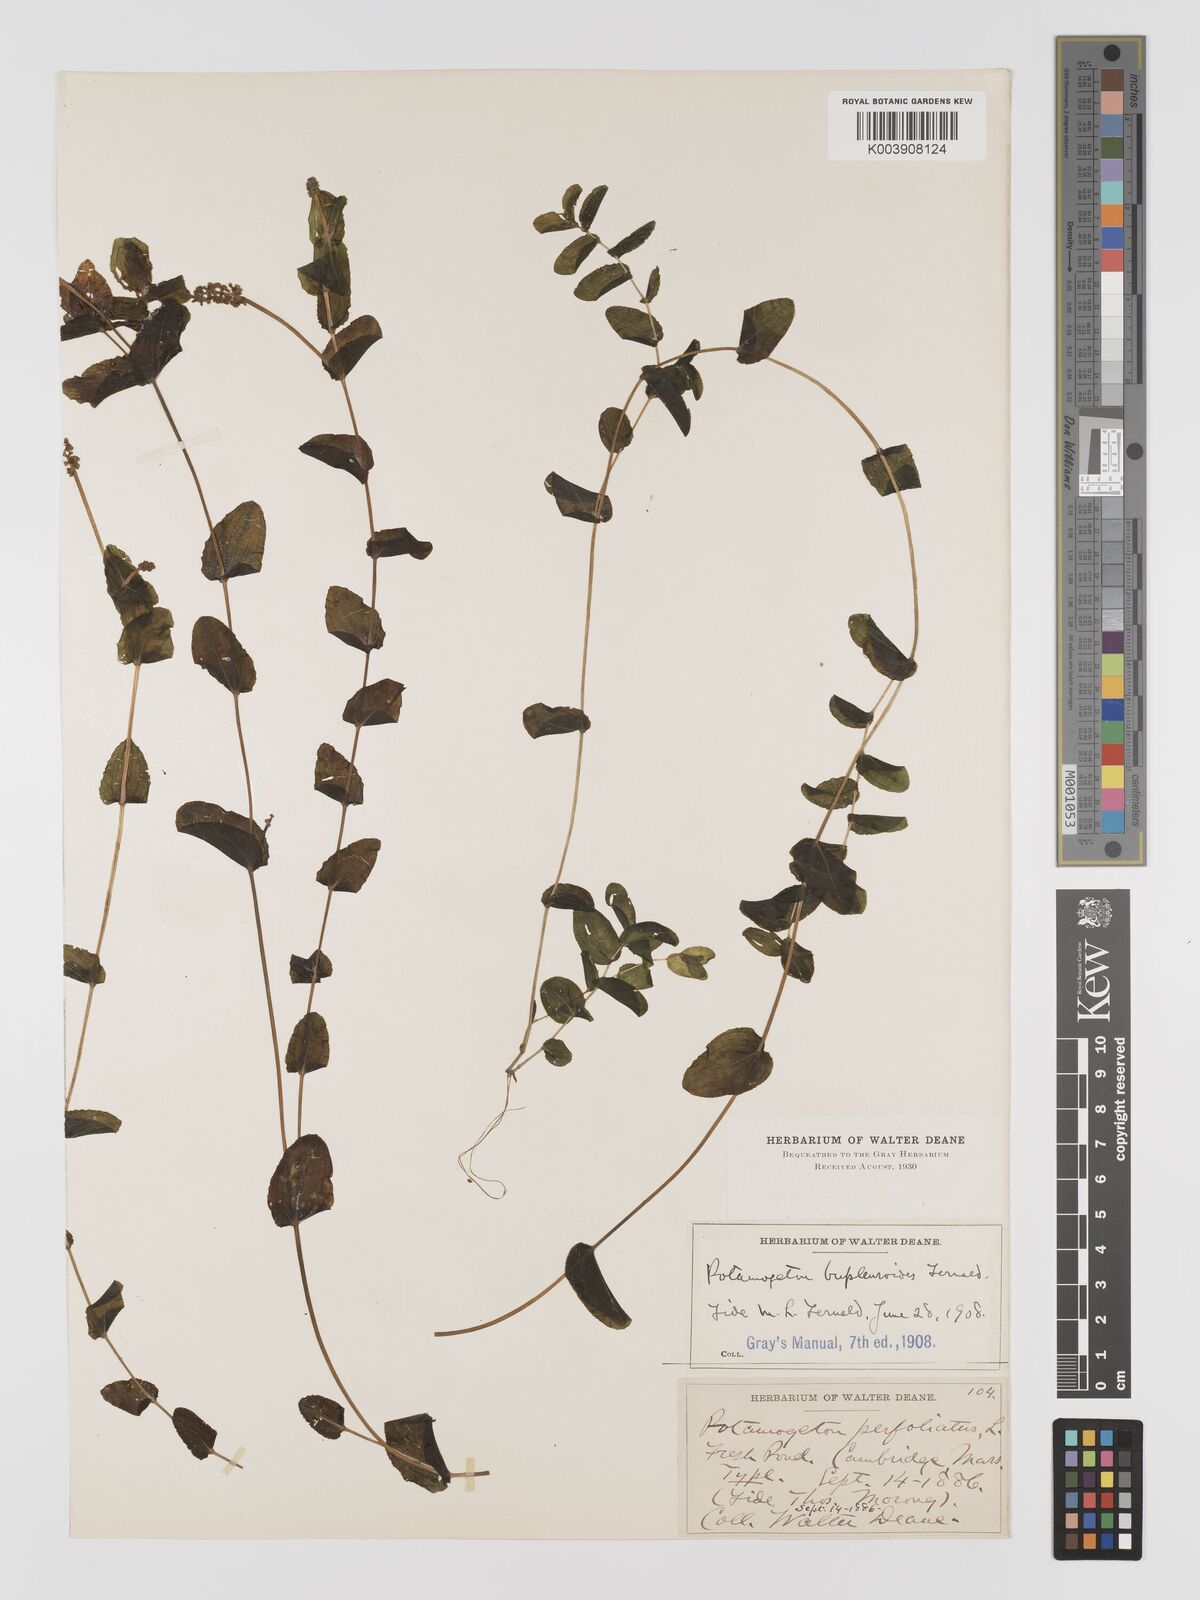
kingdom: Plantae
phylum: Tracheophyta
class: Liliopsida
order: Alismatales
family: Potamogetonaceae
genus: Potamogeton
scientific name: Potamogeton perfoliatus
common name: Perfoliate pondweed
